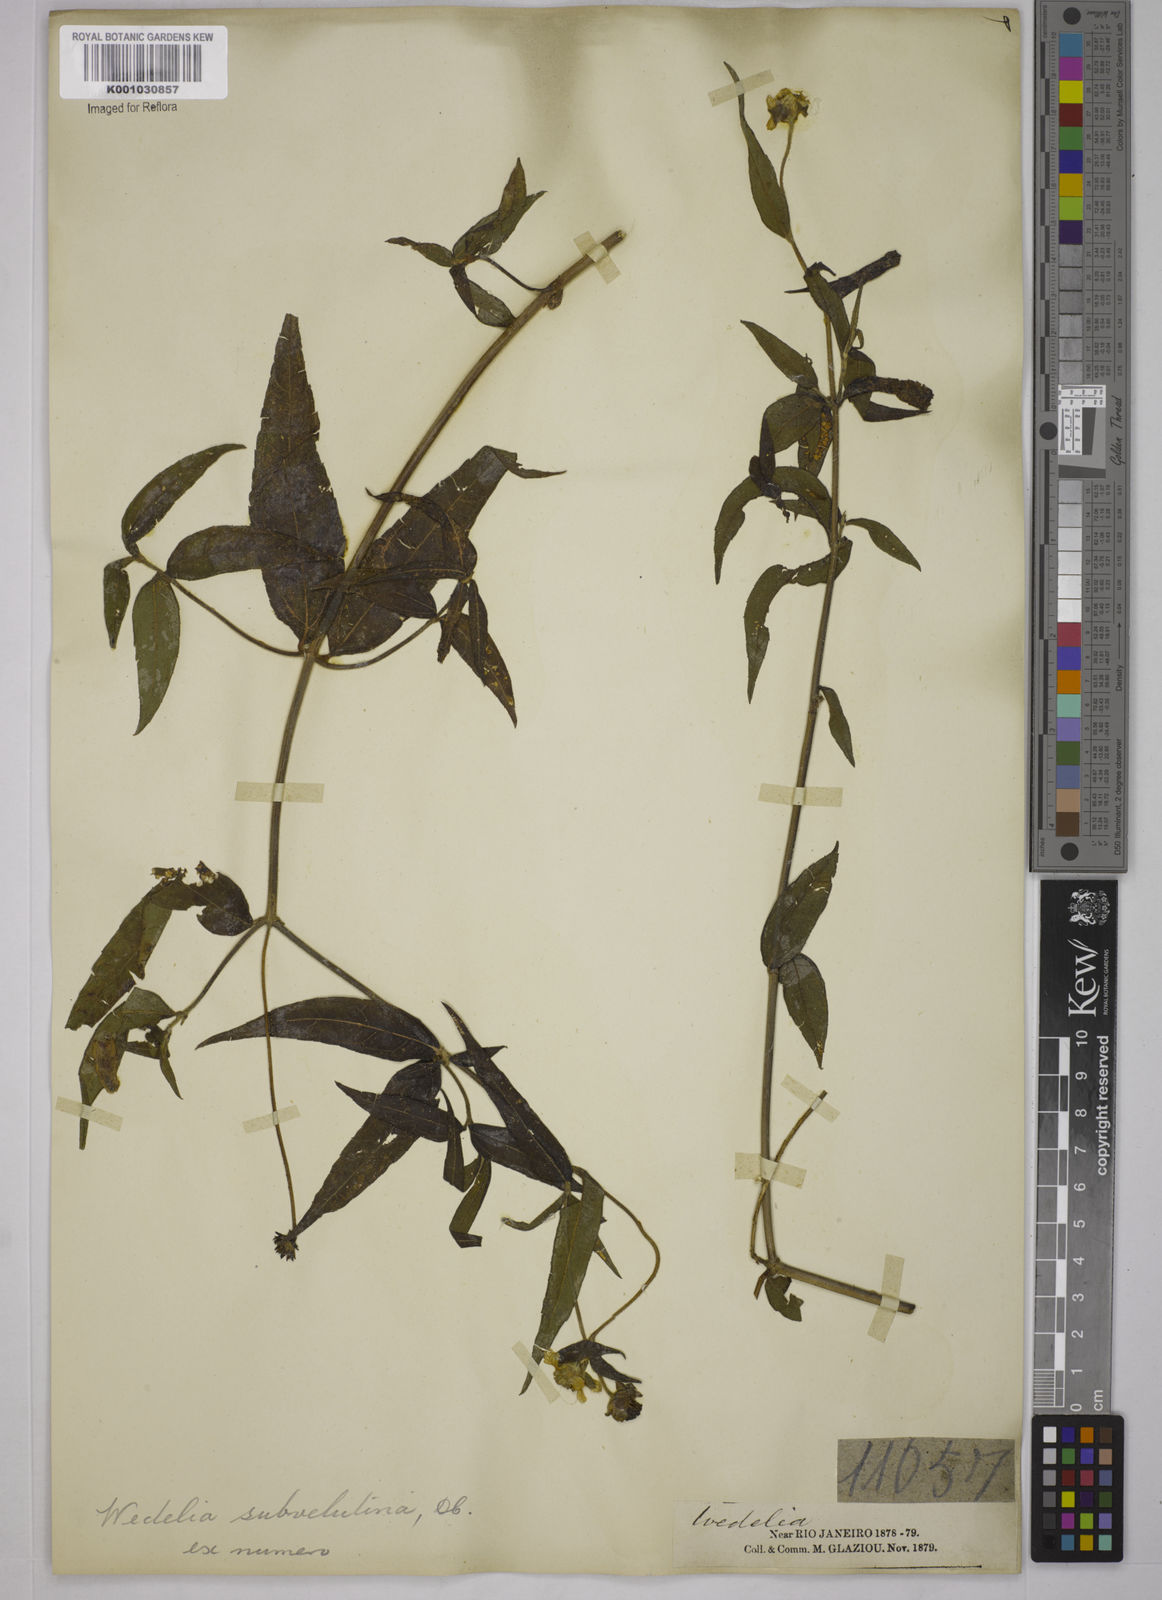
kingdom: Plantae
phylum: Tracheophyta
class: Magnoliopsida
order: Asterales
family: Asteraceae
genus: Wedelia
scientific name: Wedelia subvelutina
